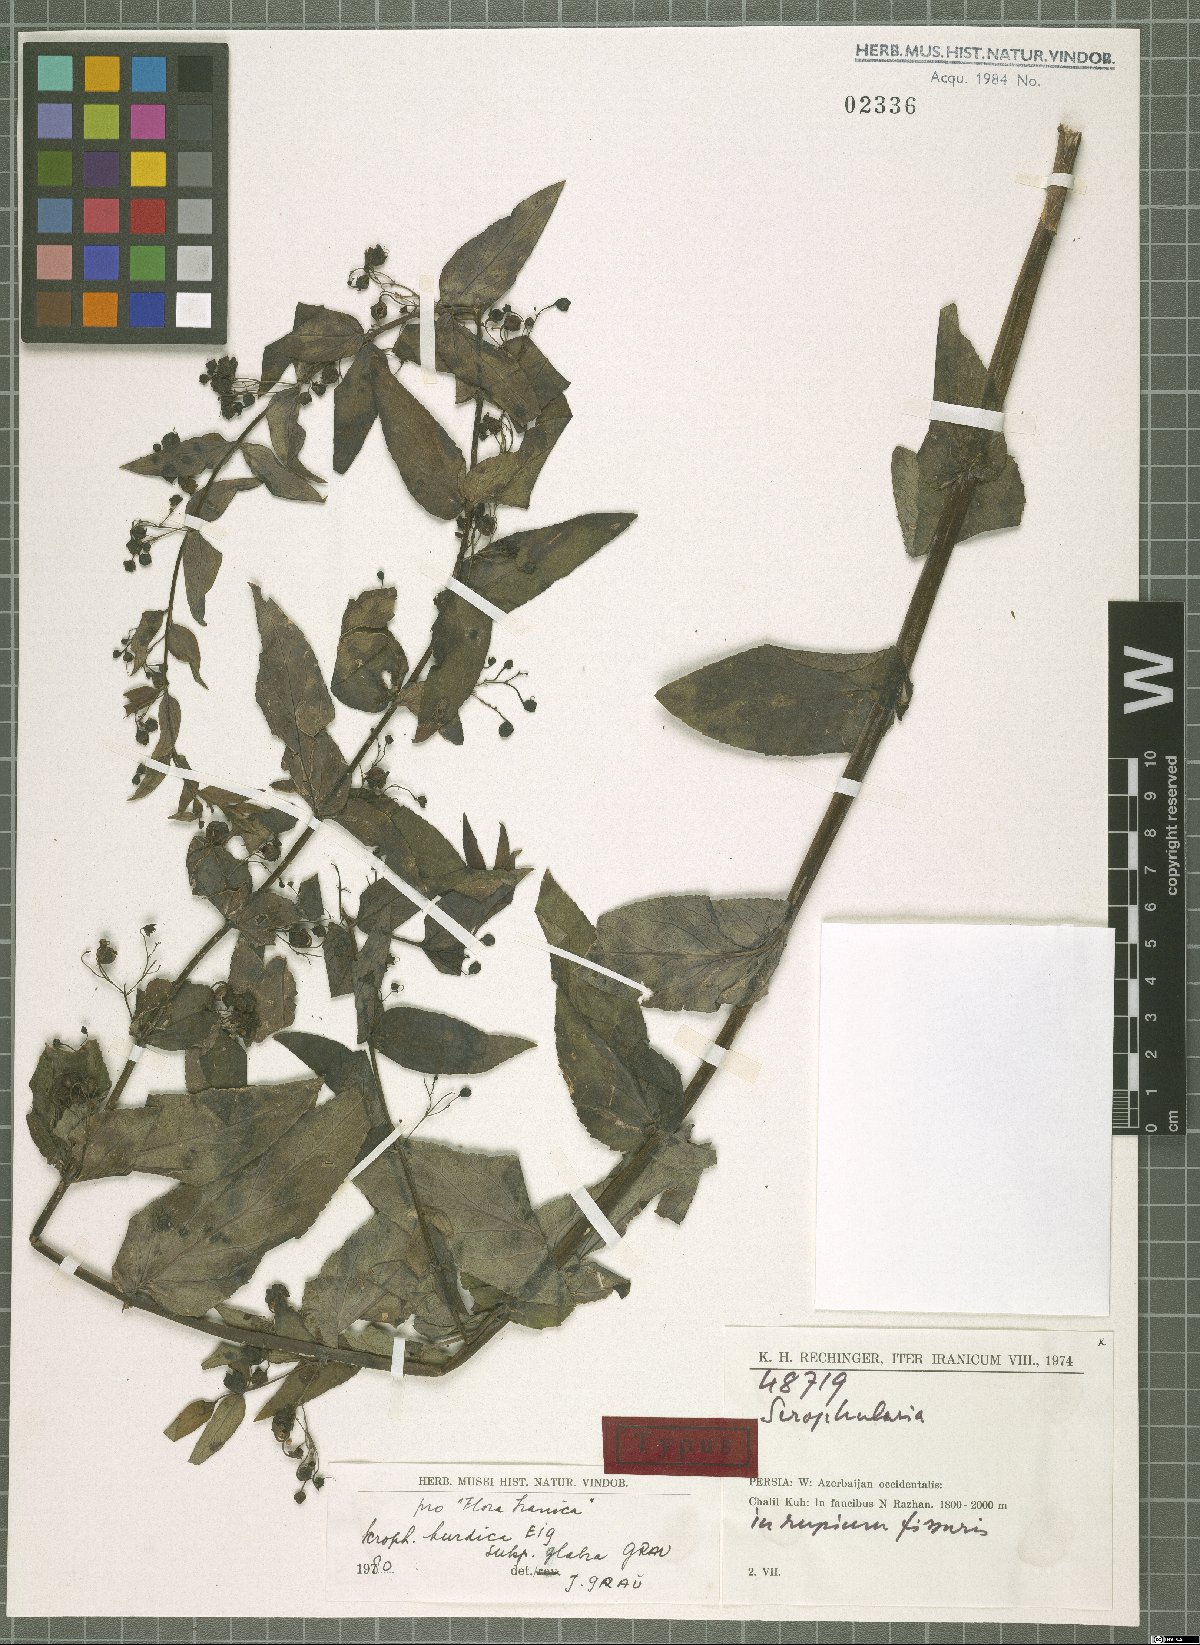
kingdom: Plantae
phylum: Tracheophyta
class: Magnoliopsida
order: Lamiales
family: Scrophulariaceae
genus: Scrophularia
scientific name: Scrophularia kurdica
